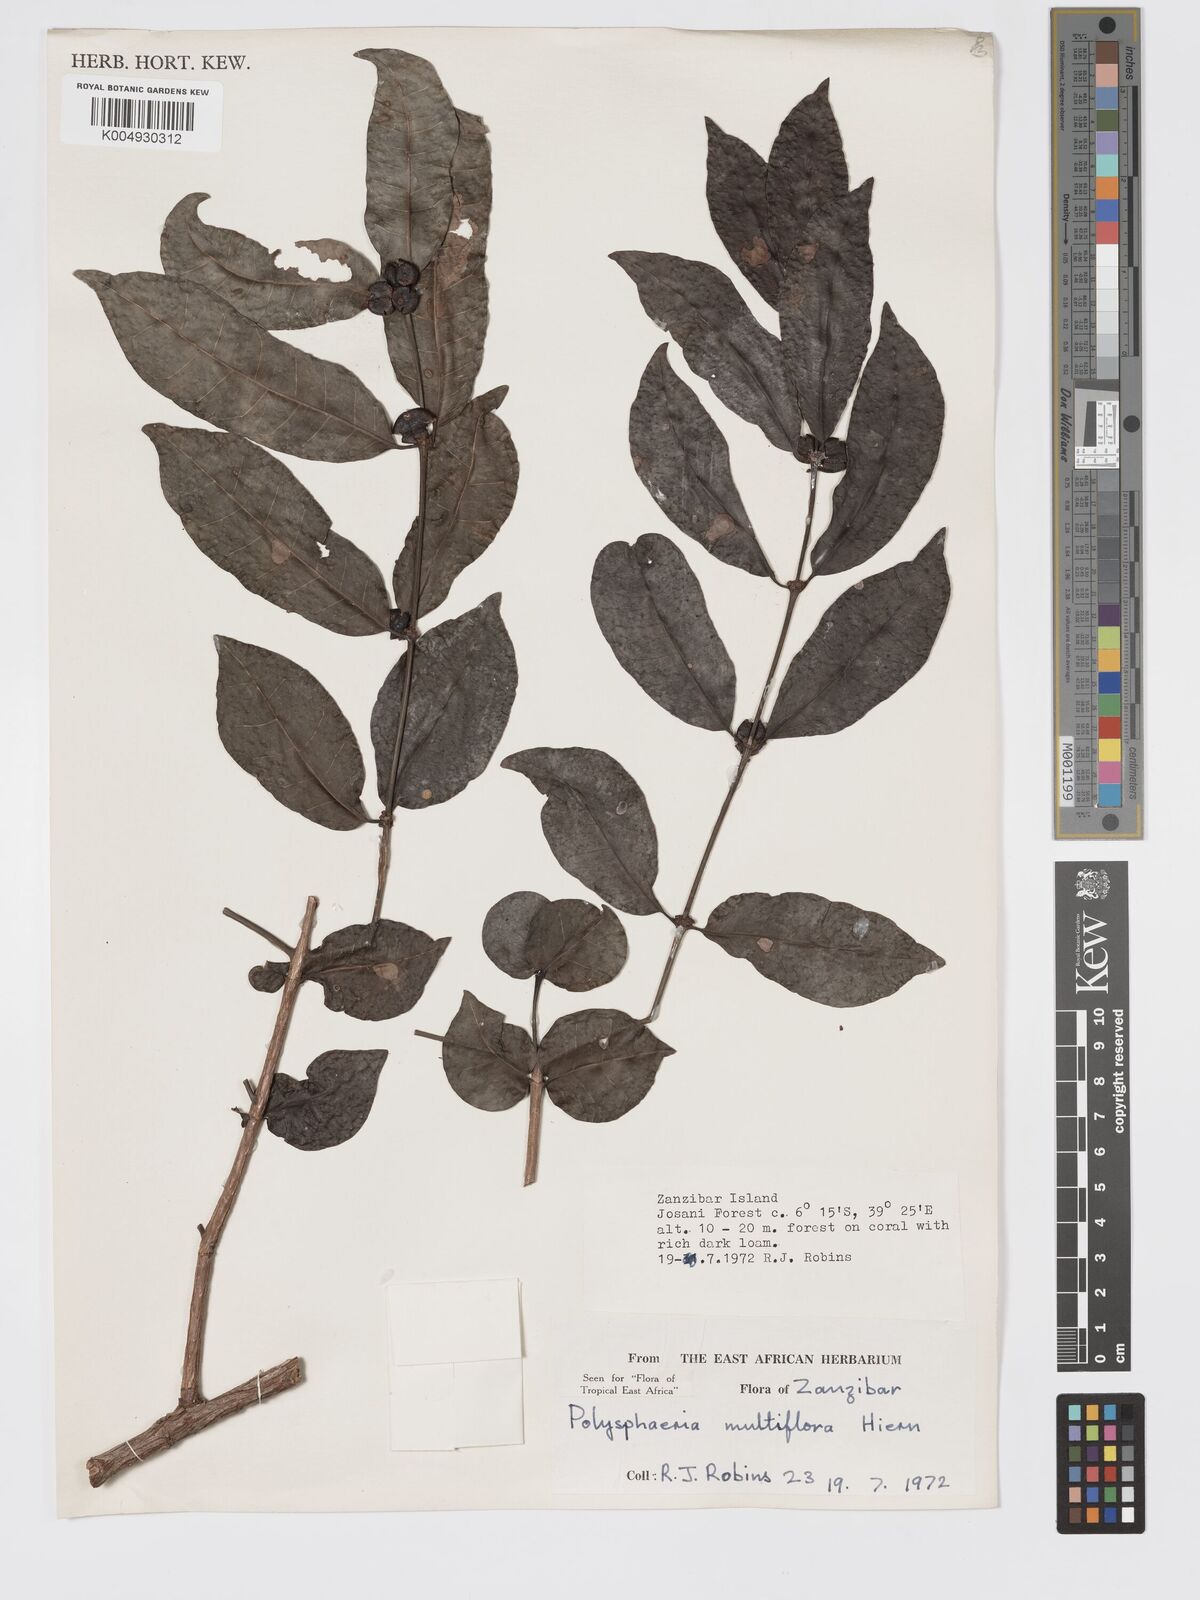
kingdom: Plantae
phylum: Tracheophyta
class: Magnoliopsida
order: Gentianales
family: Rubiaceae
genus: Polysphaeria
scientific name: Polysphaeria multiflora
